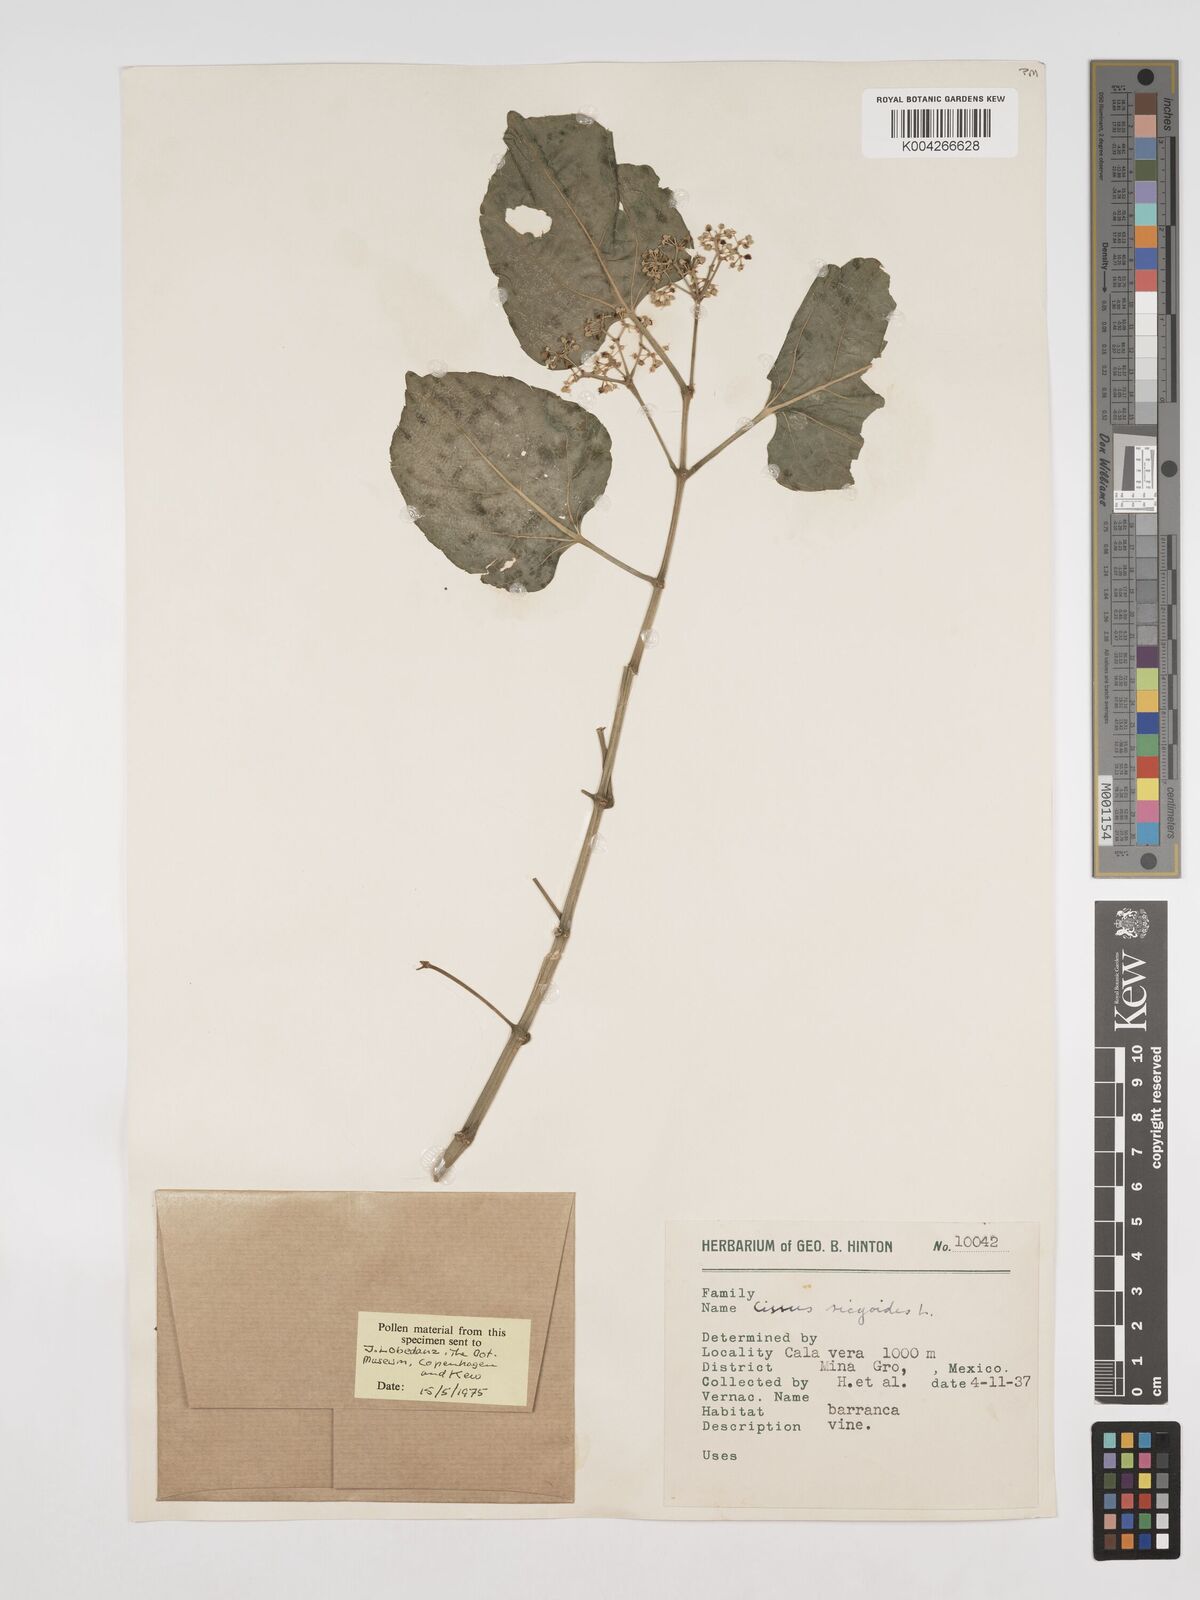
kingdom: Plantae
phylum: Tracheophyta
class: Magnoliopsida
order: Vitales
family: Vitaceae
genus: Cissus
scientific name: Cissus
